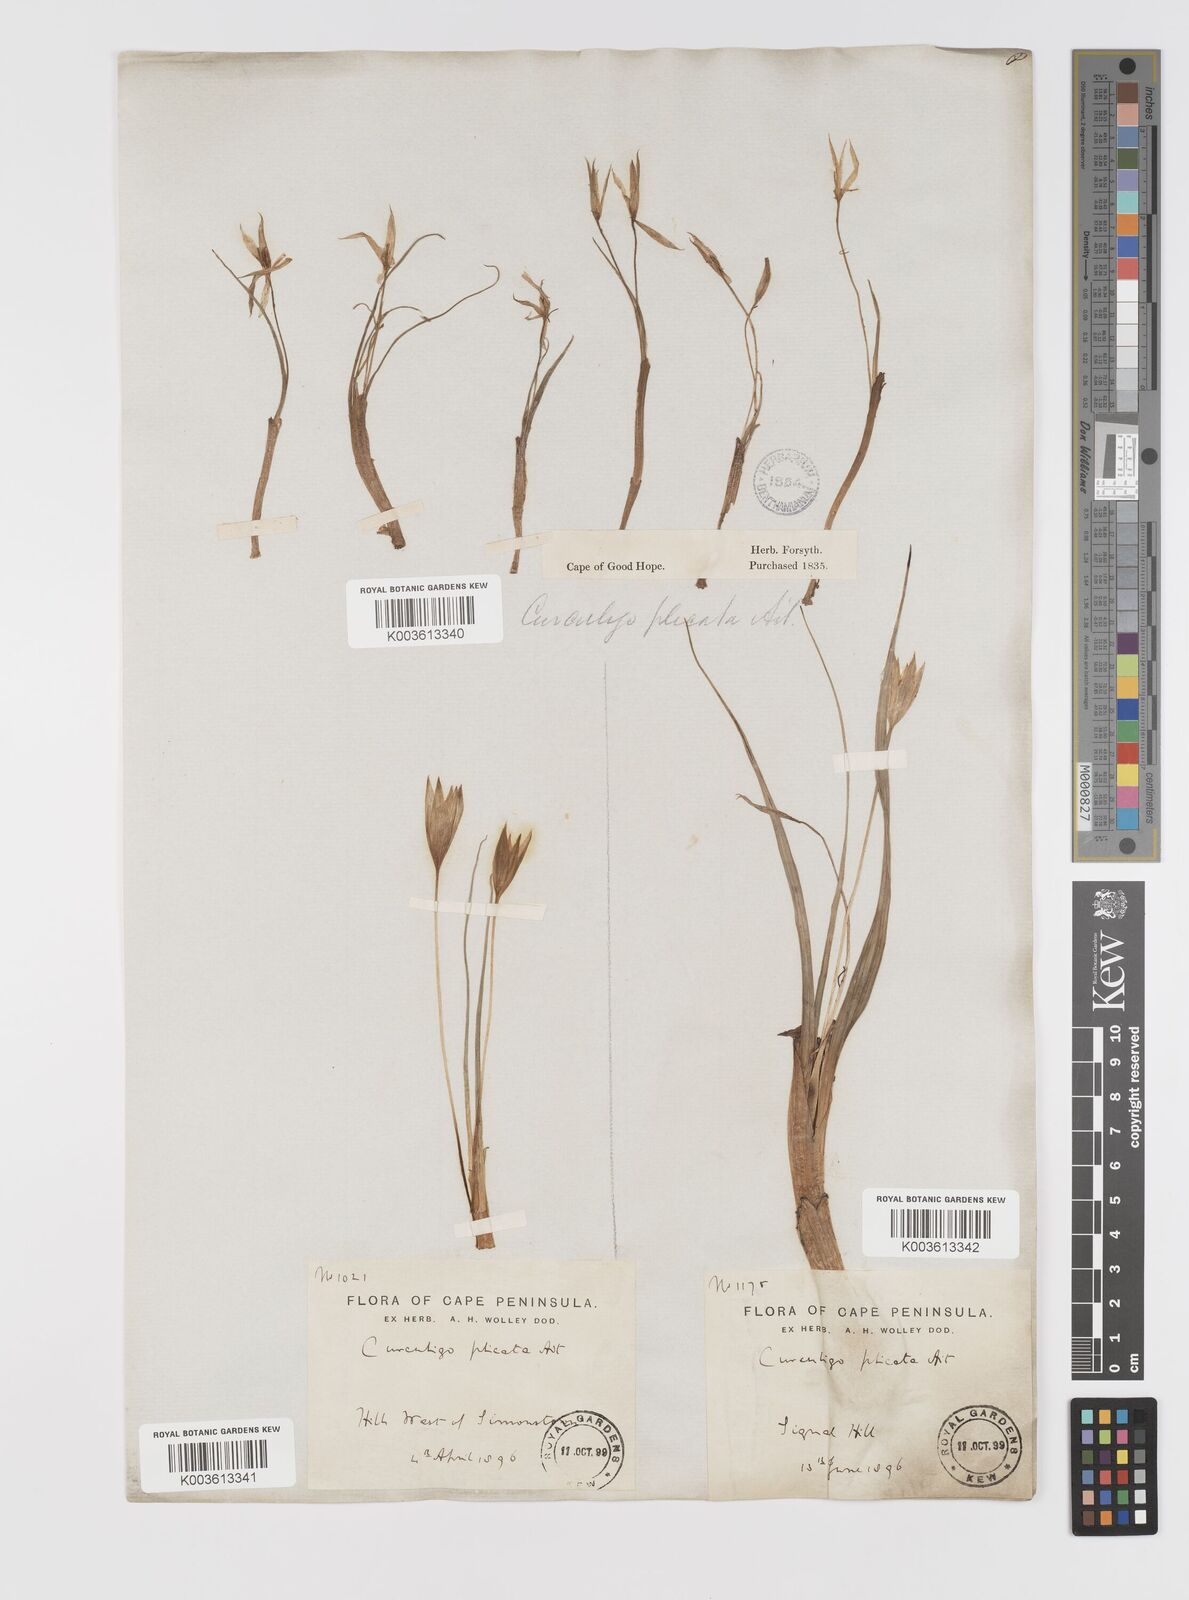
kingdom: Plantae
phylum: Tracheophyta
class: Liliopsida
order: Asparagales
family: Hypoxidaceae
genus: Empodium
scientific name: Empodium plicatum
